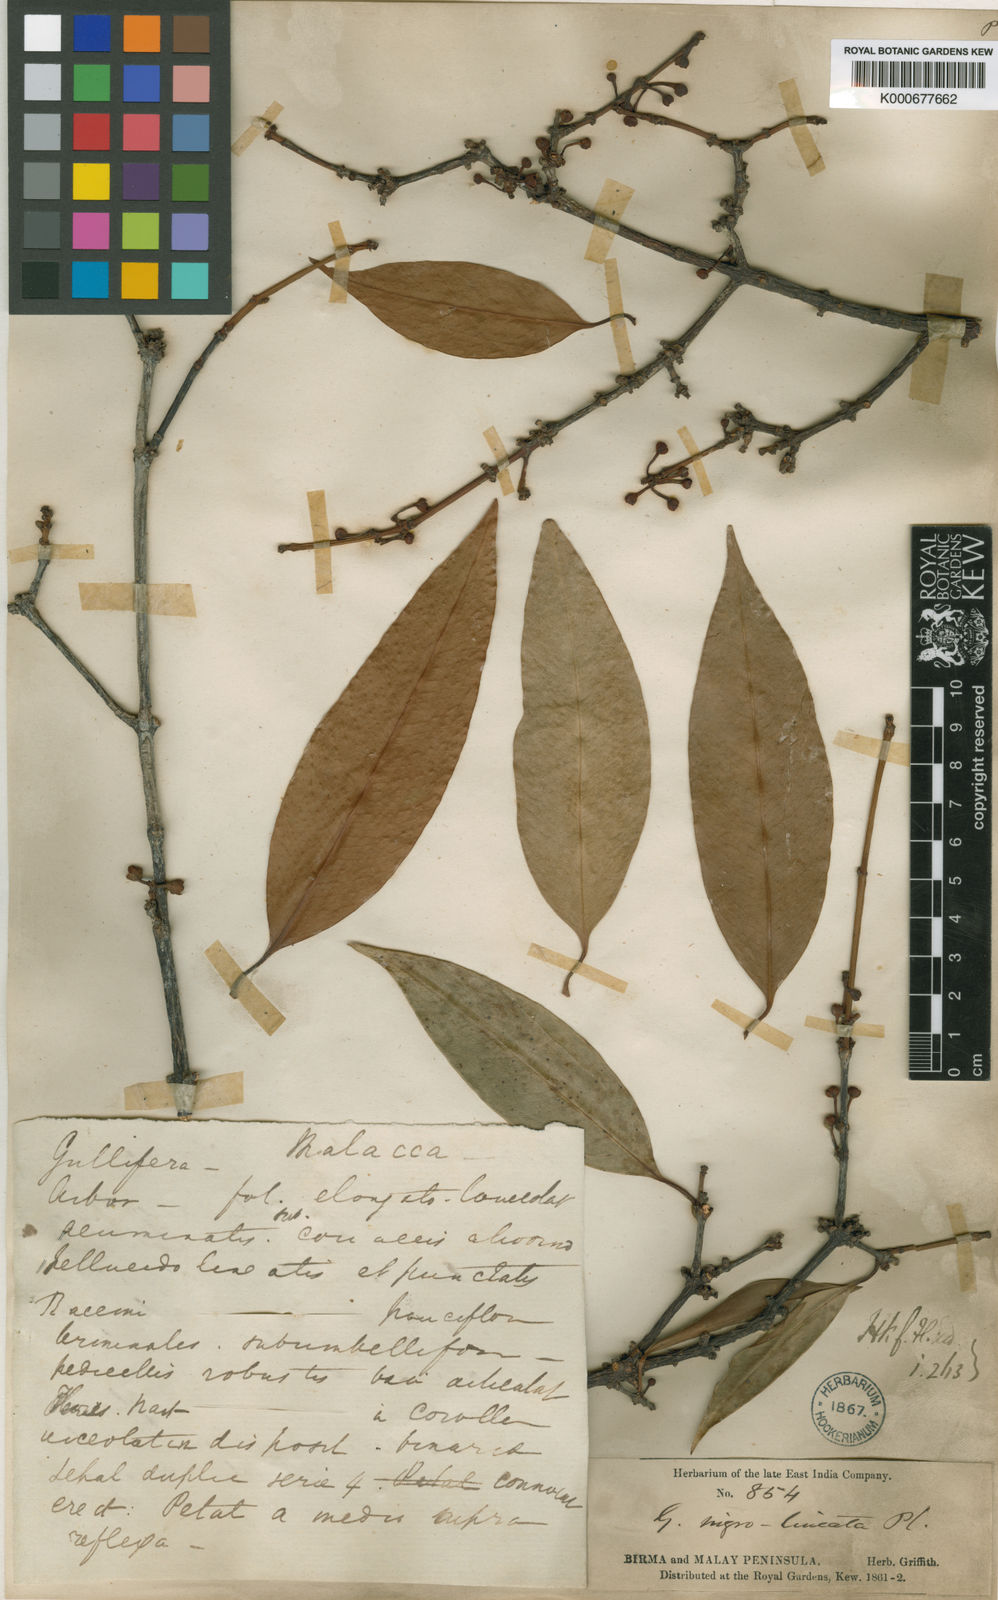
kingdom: Plantae
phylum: Tracheophyta
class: Magnoliopsida
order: Malpighiales
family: Clusiaceae
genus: Garcinia
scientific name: Garcinia nigrolineata
